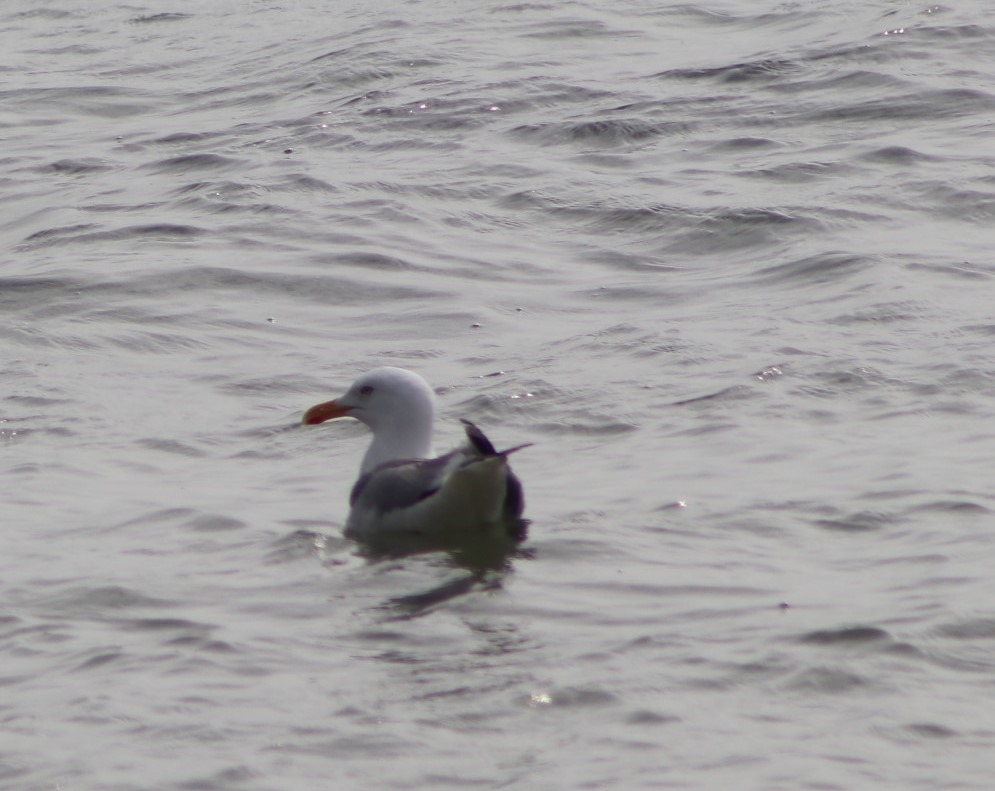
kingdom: Animalia
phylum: Chordata
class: Aves
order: Charadriiformes
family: Laridae
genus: Larus
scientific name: Larus argentatus
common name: Sølvmåge
